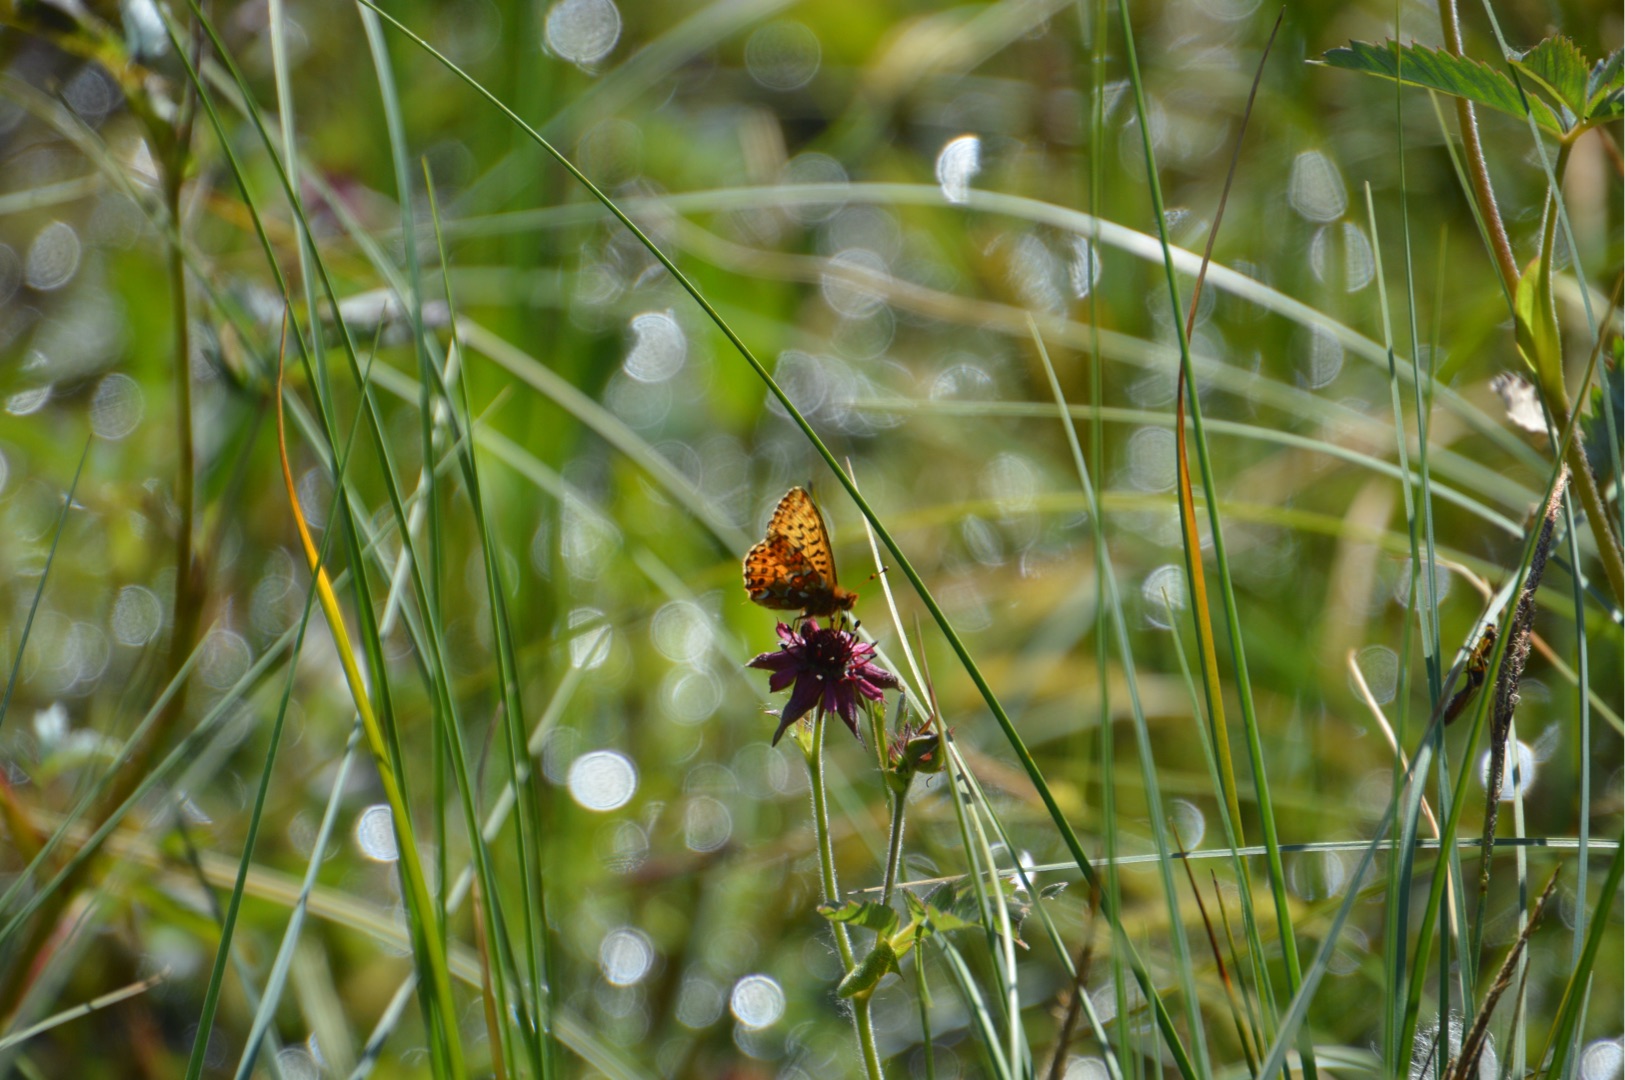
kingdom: Plantae
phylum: Tracheophyta
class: Magnoliopsida
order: Rosales
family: Rosaceae
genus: Comarum
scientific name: Comarum palustre
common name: Kragefod
